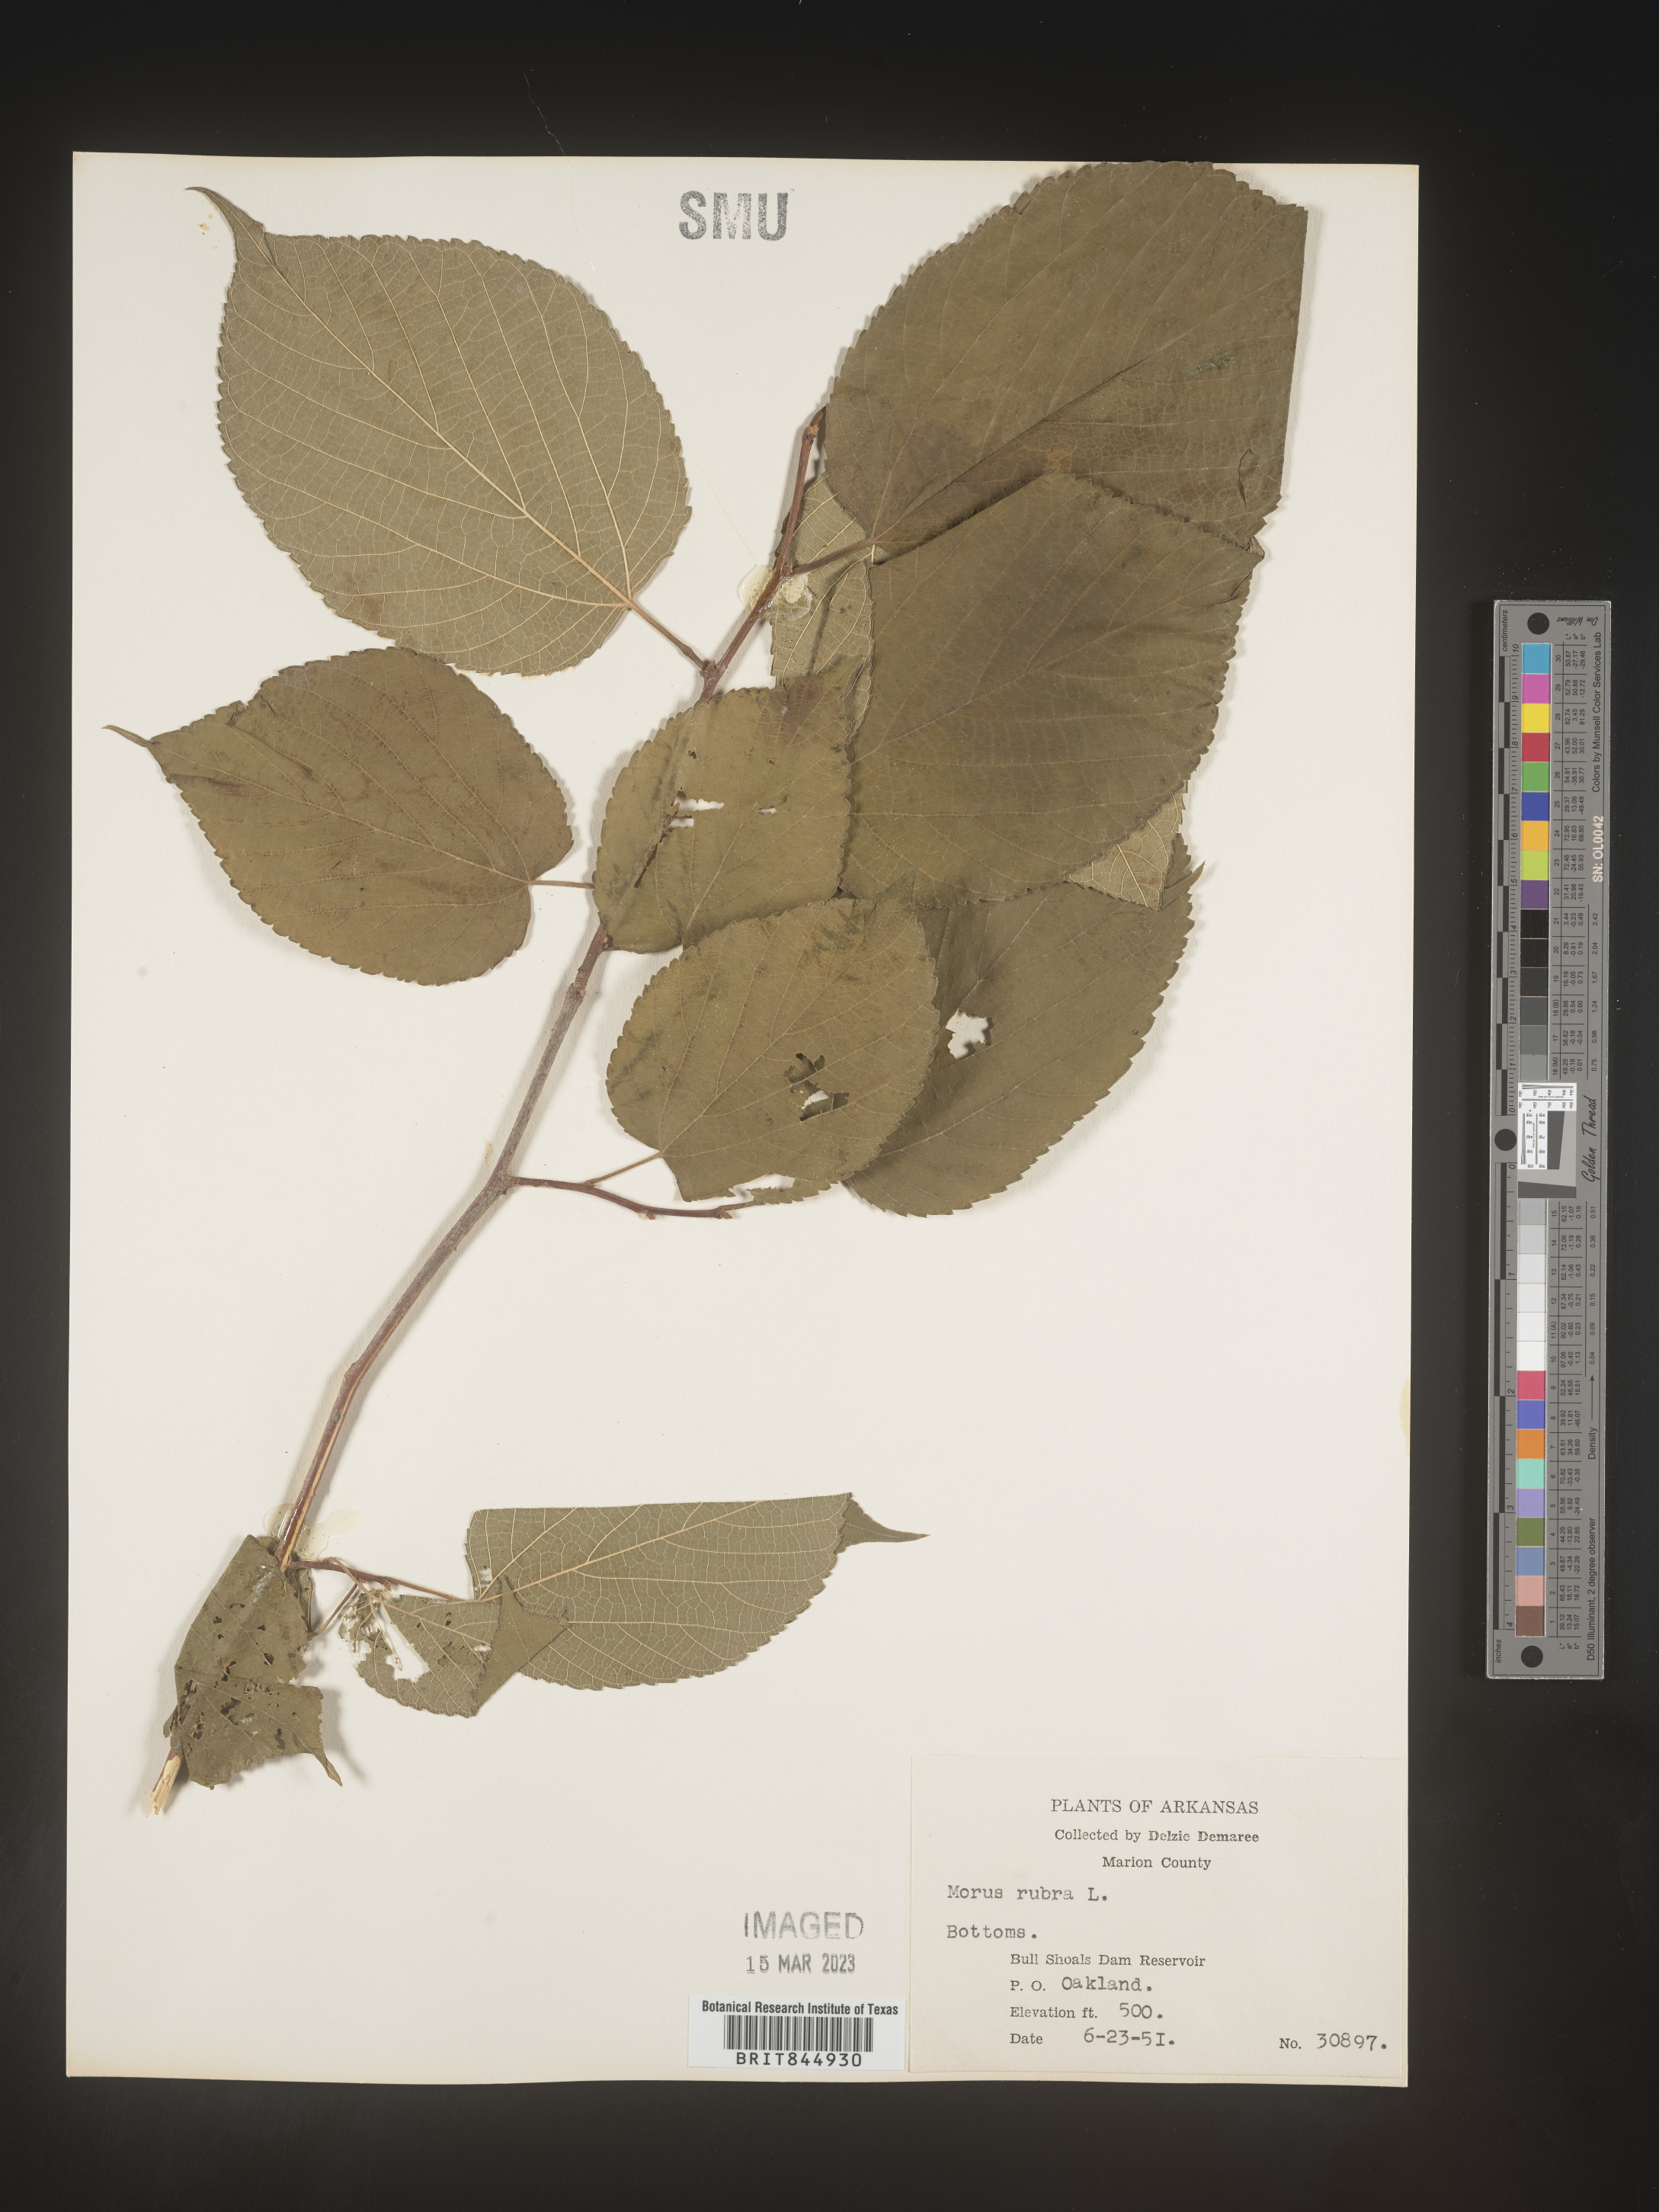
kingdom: Plantae
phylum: Tracheophyta
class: Magnoliopsida
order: Rosales
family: Moraceae
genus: Morus
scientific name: Morus rubra
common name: Red mulberry
